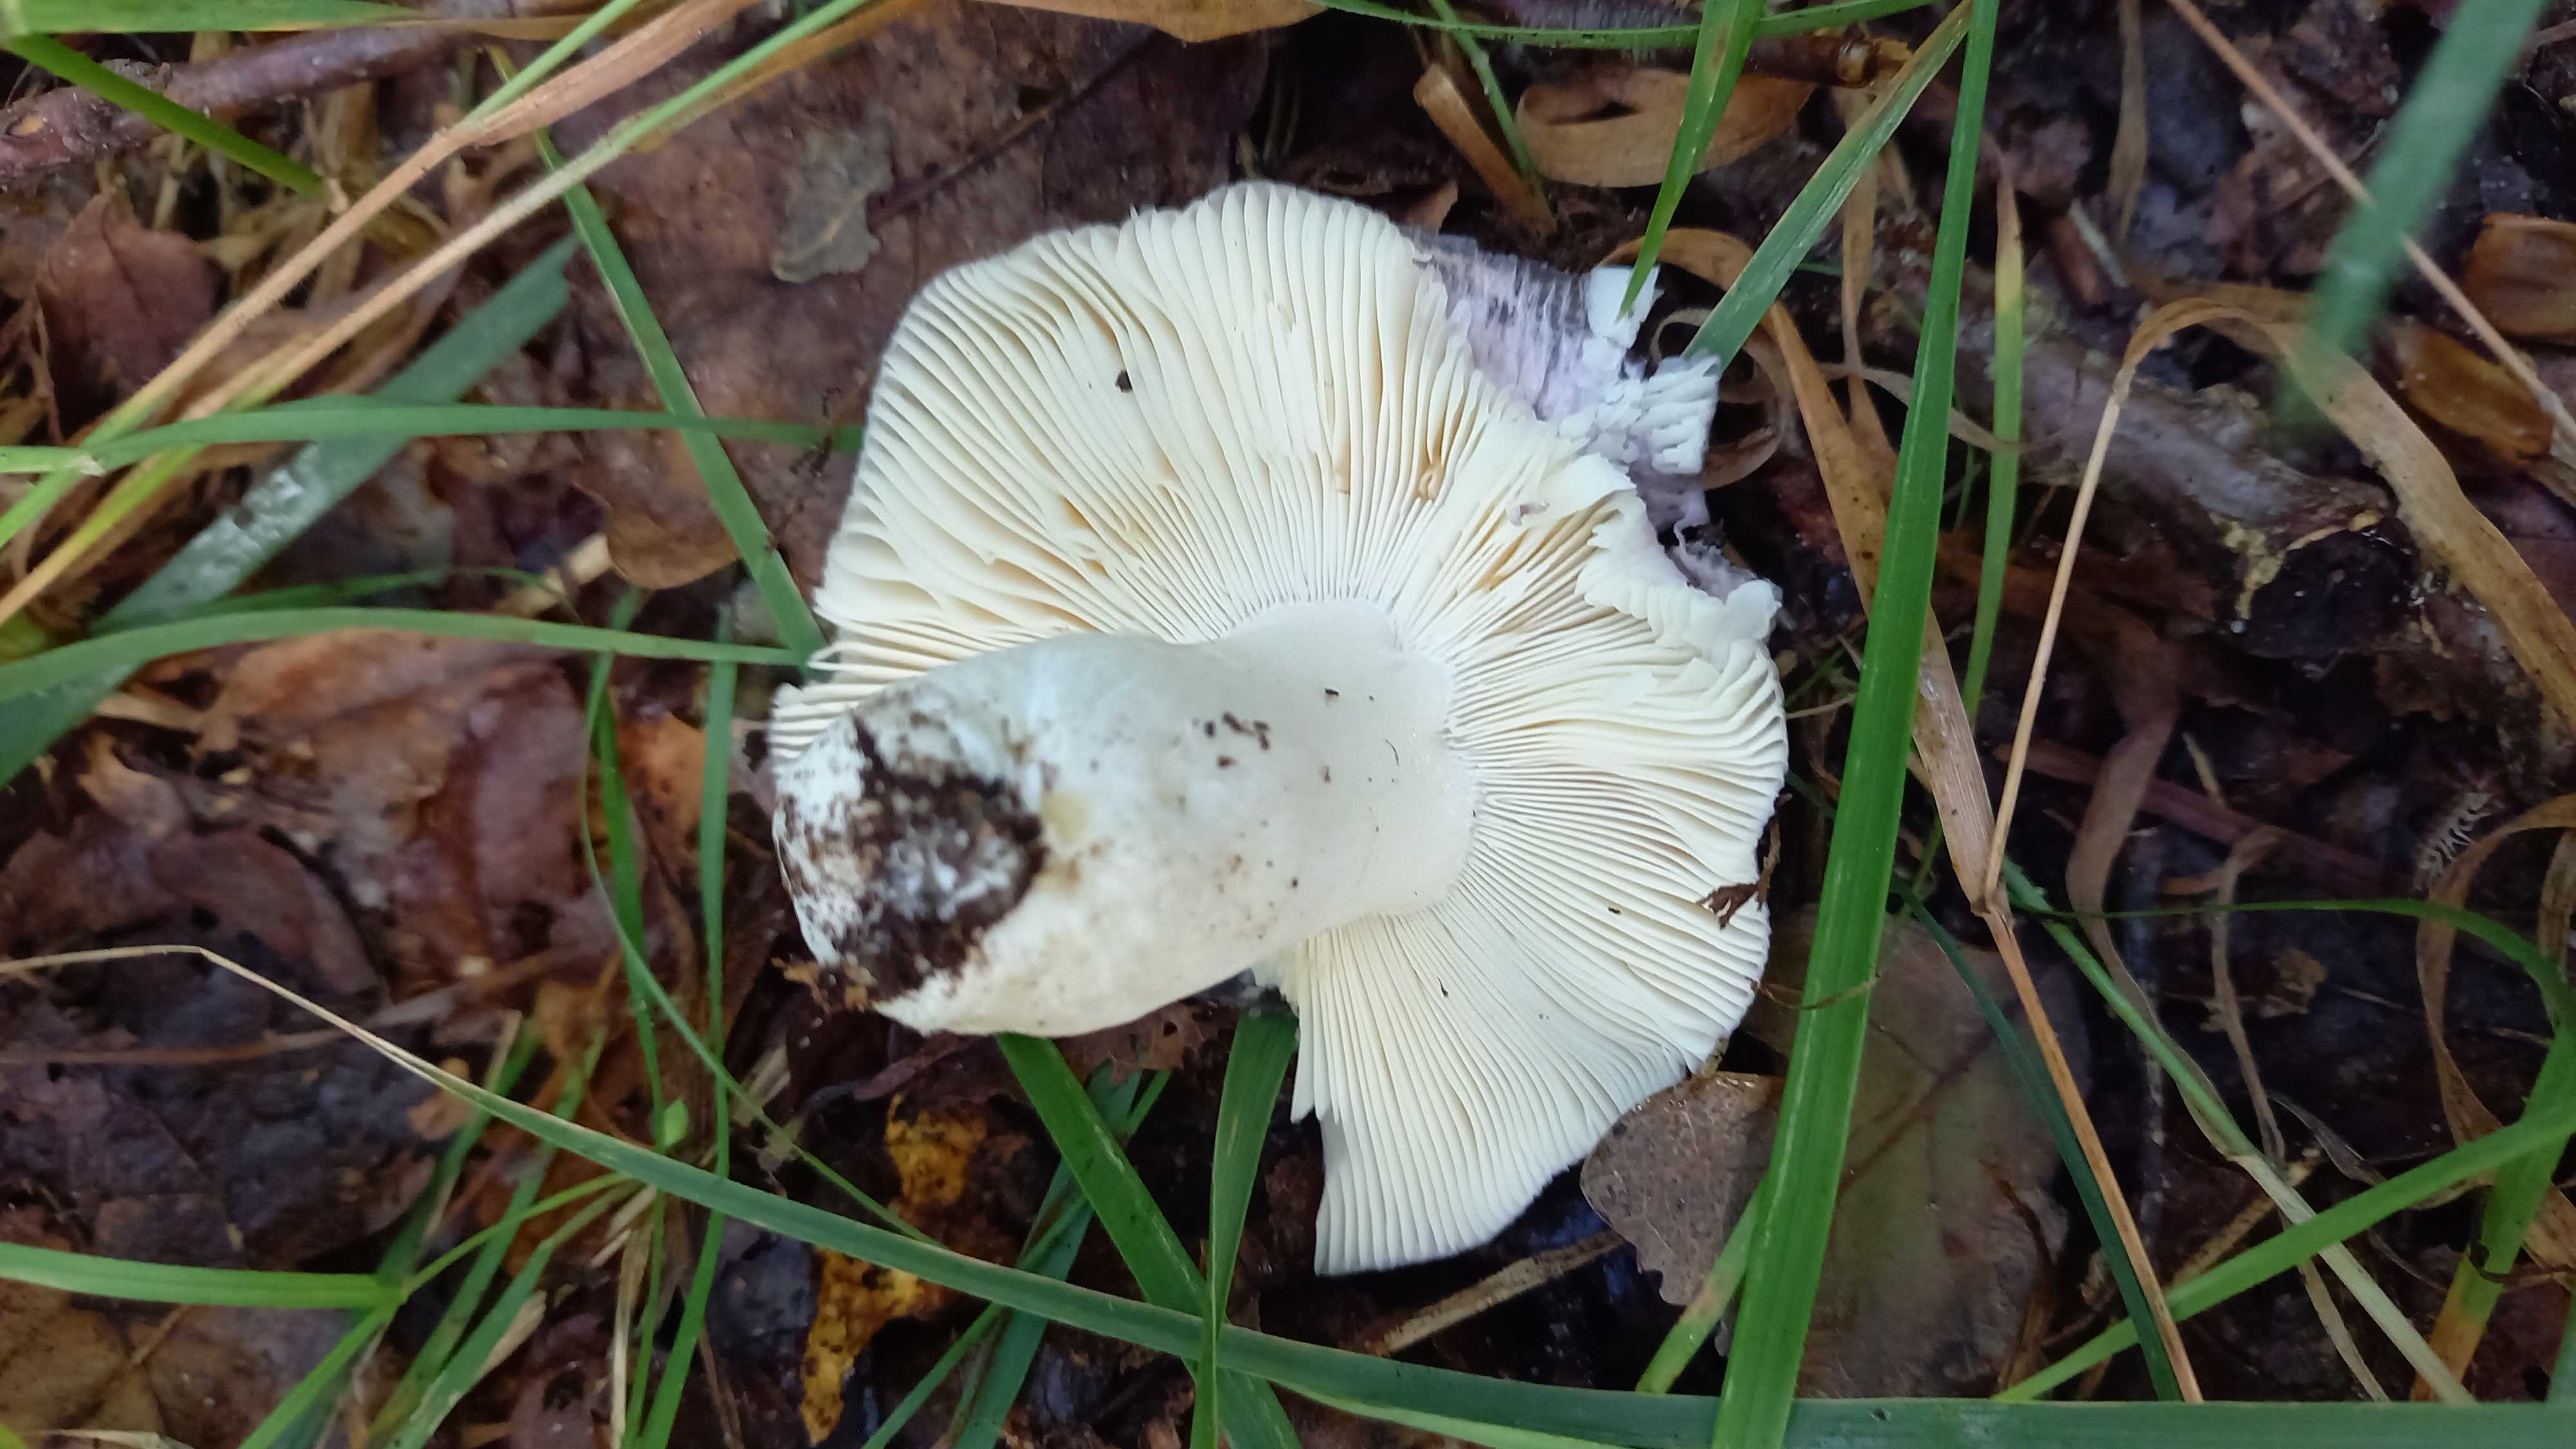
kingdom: Fungi
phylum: Basidiomycota
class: Agaricomycetes
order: Russulales
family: Russulaceae
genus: Russula
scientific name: Russula cyanoxantha
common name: broget skørhat
